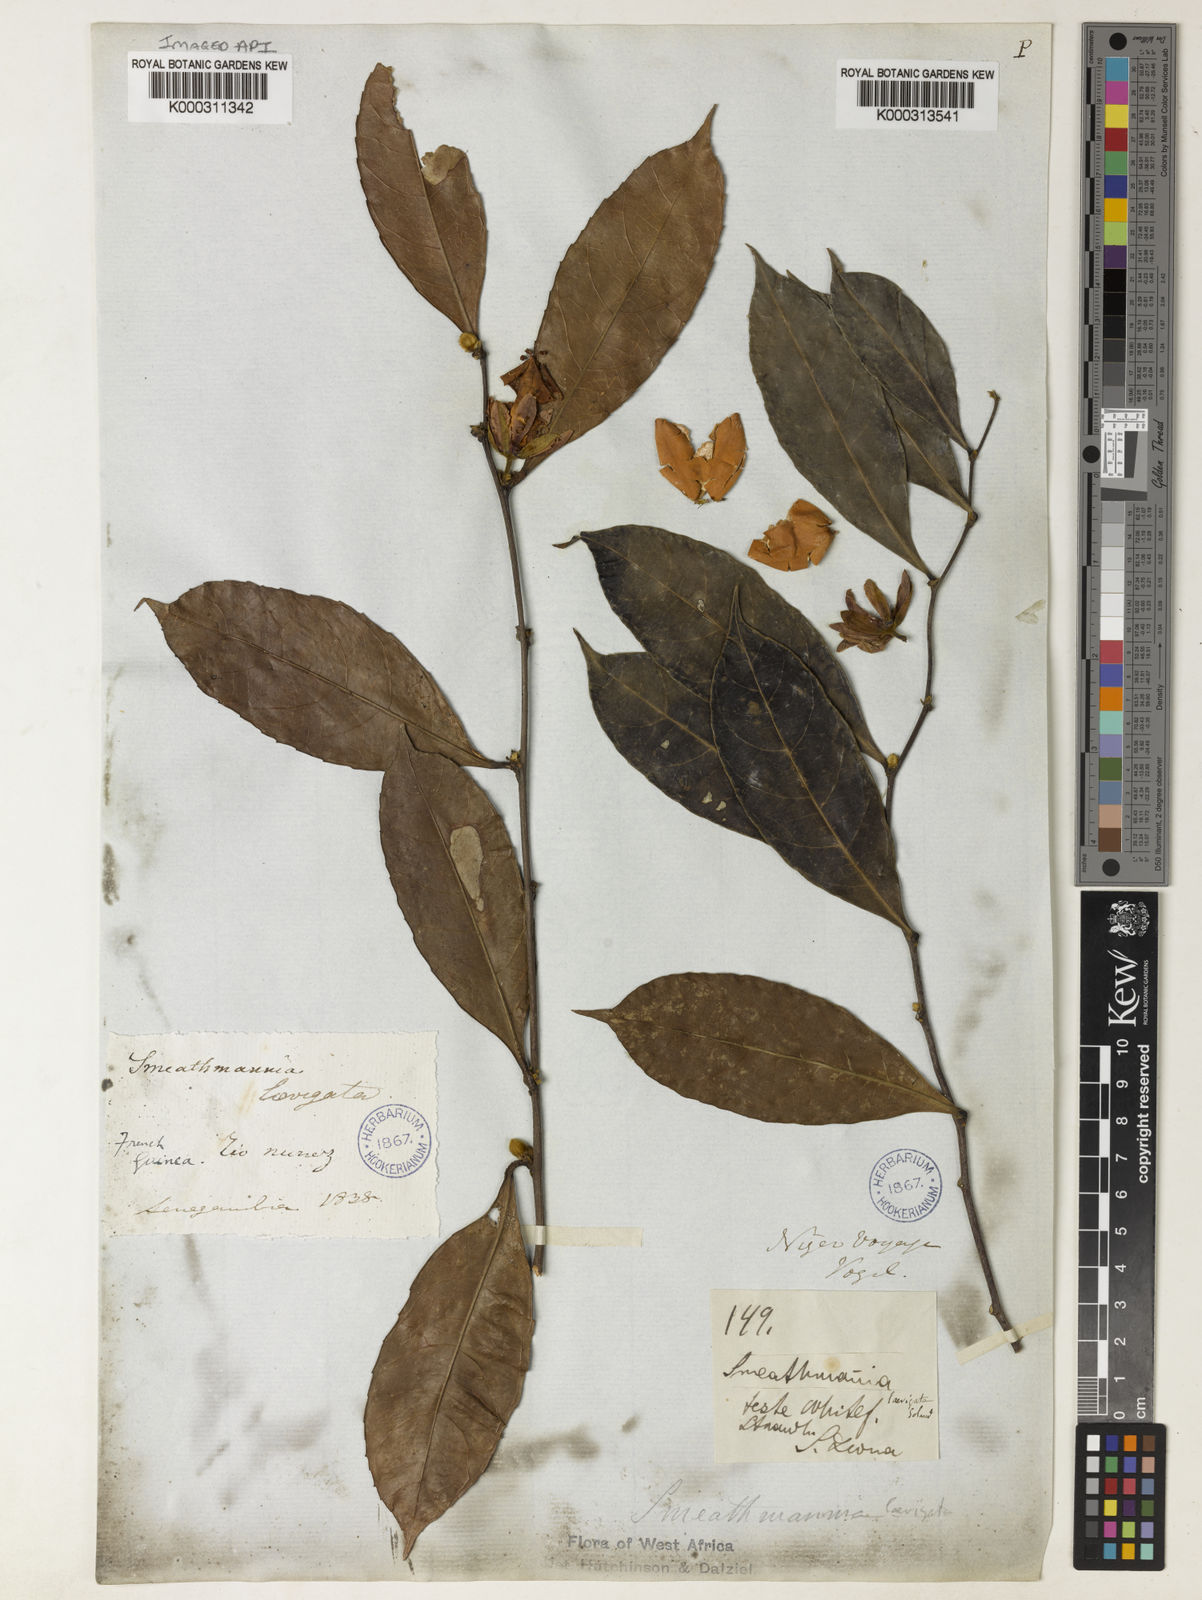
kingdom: Plantae
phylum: Tracheophyta
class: Magnoliopsida
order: Malpighiales
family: Passifloraceae
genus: Smeathmannia
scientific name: Smeathmannia laevigata
